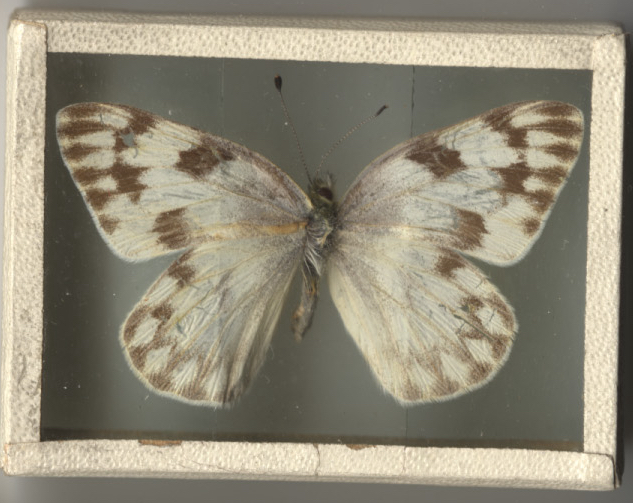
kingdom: Animalia
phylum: Arthropoda
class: Insecta
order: Lepidoptera
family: Pieridae
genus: Pontia
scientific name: Pontia protodice
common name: Checkered White
